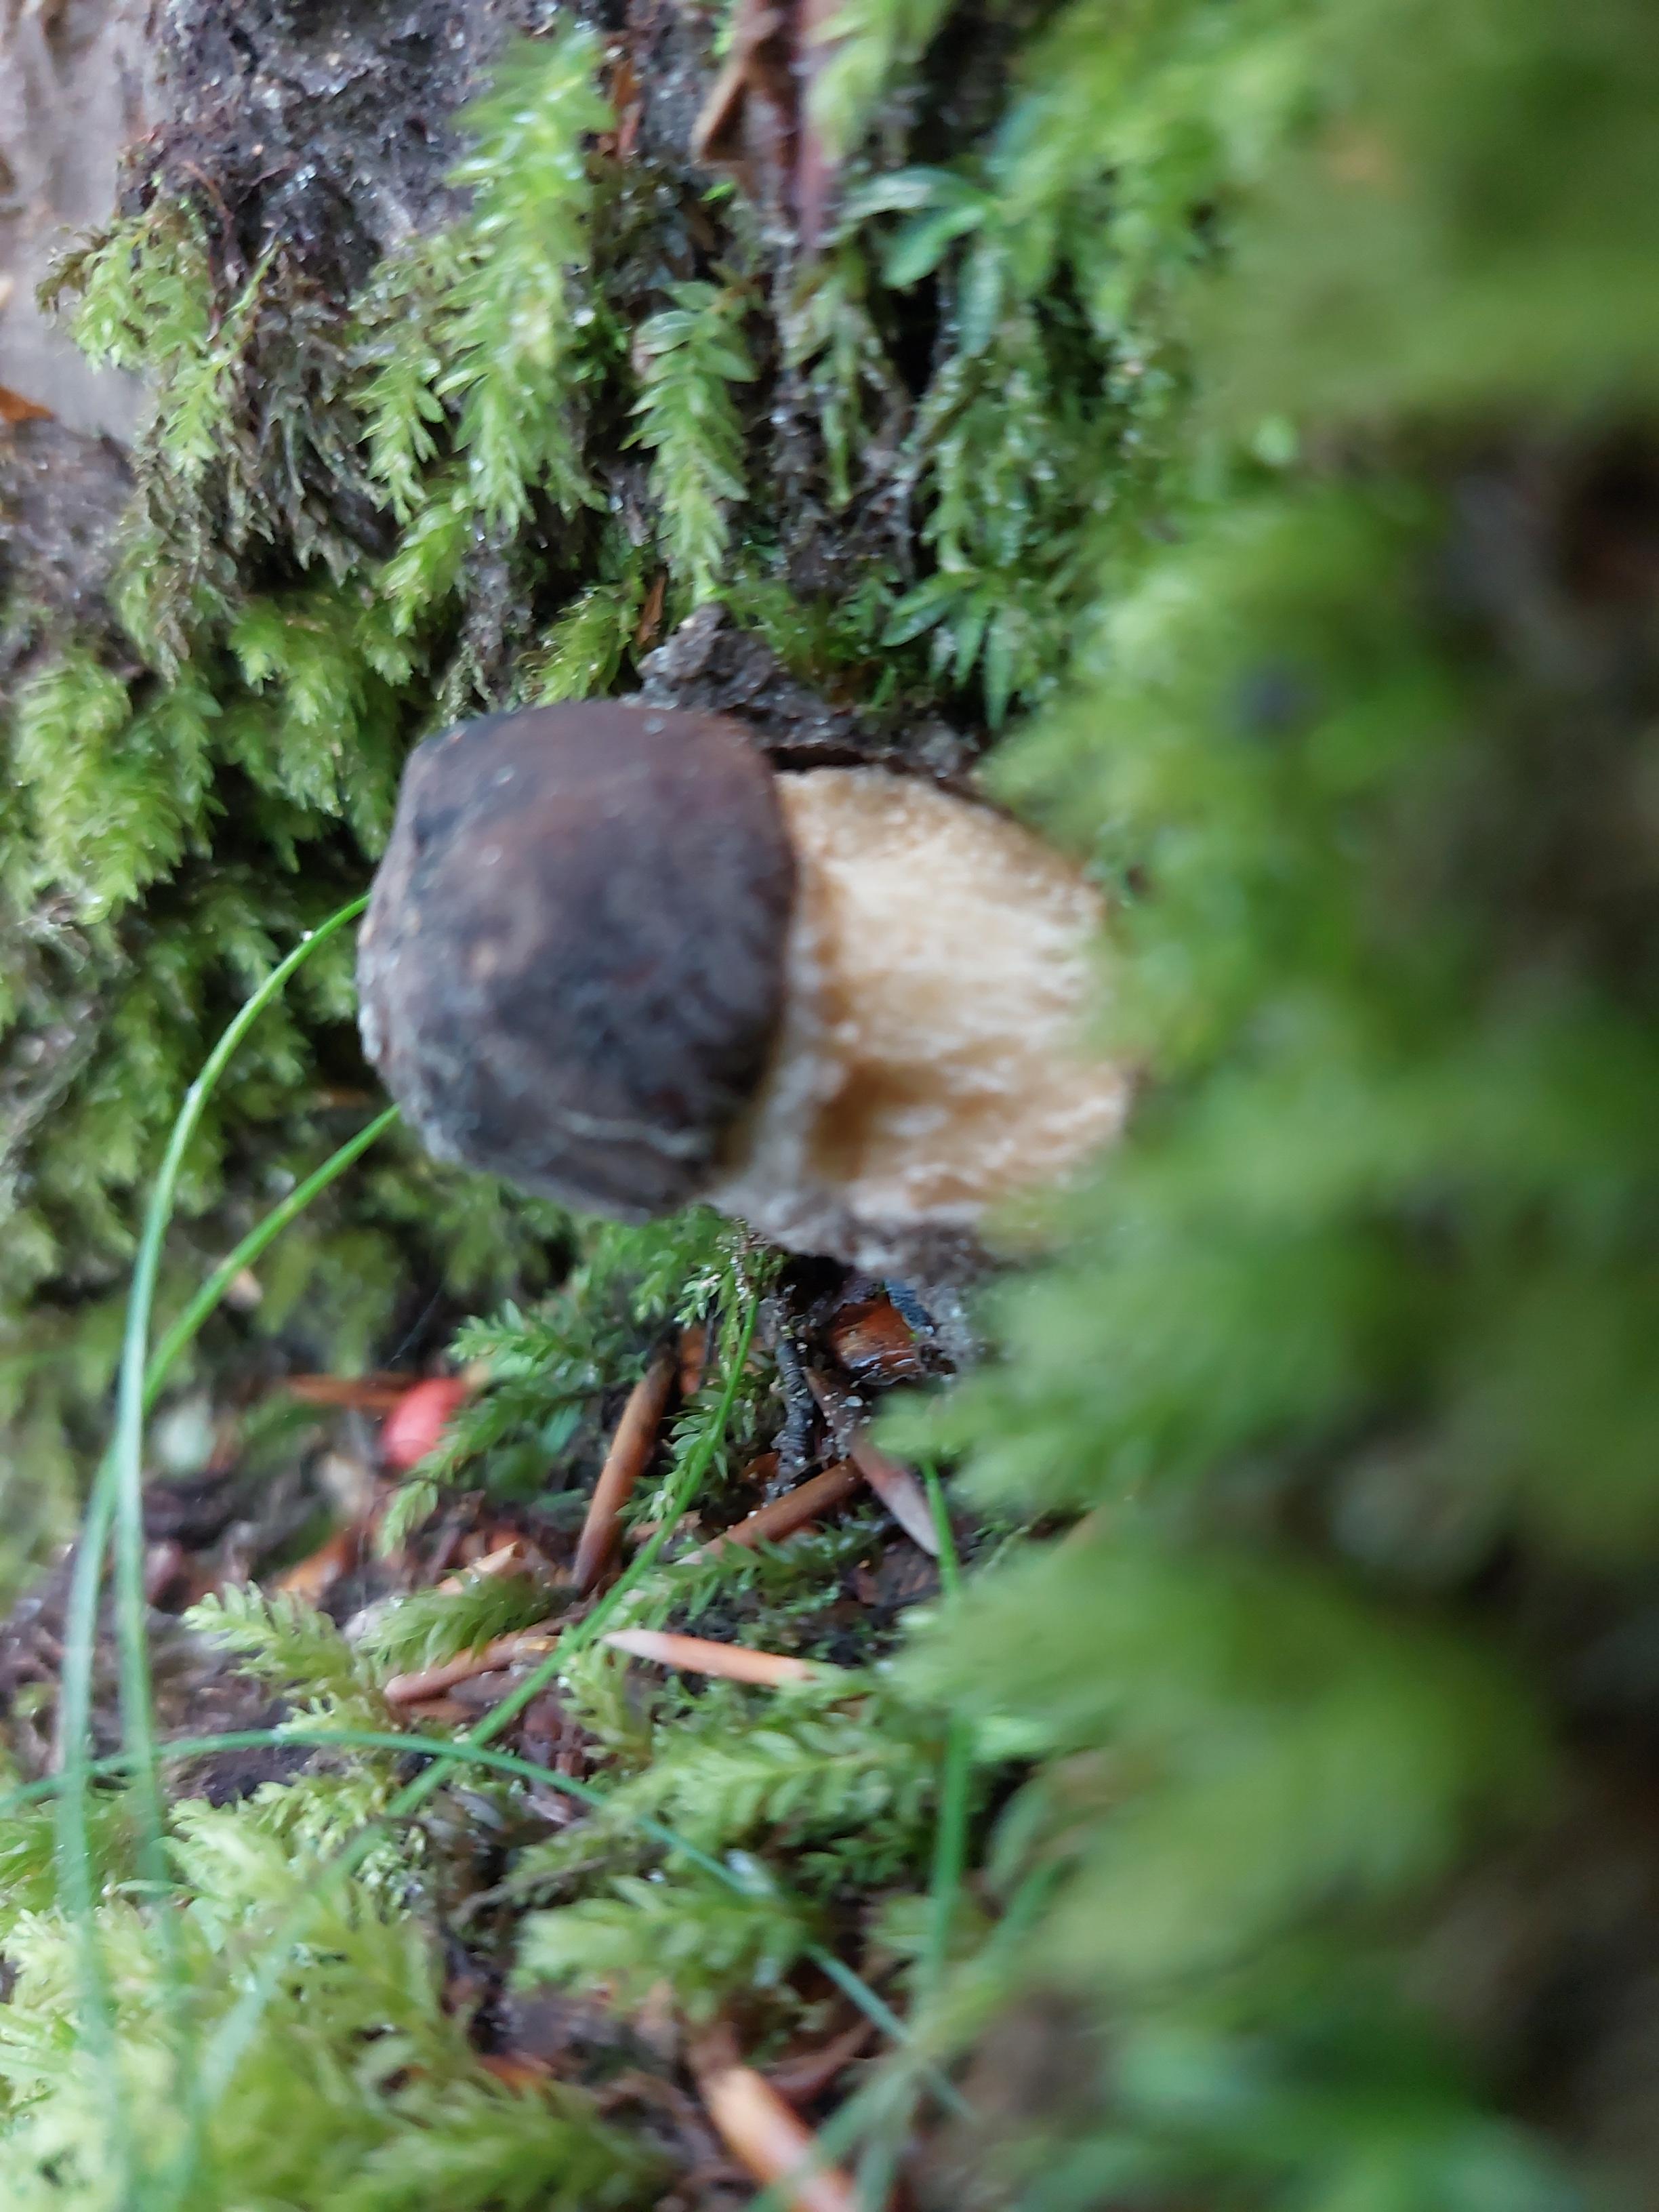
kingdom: Fungi
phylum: Basidiomycota
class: Agaricomycetes
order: Boletales
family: Boletaceae
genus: Boletus
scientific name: Boletus
